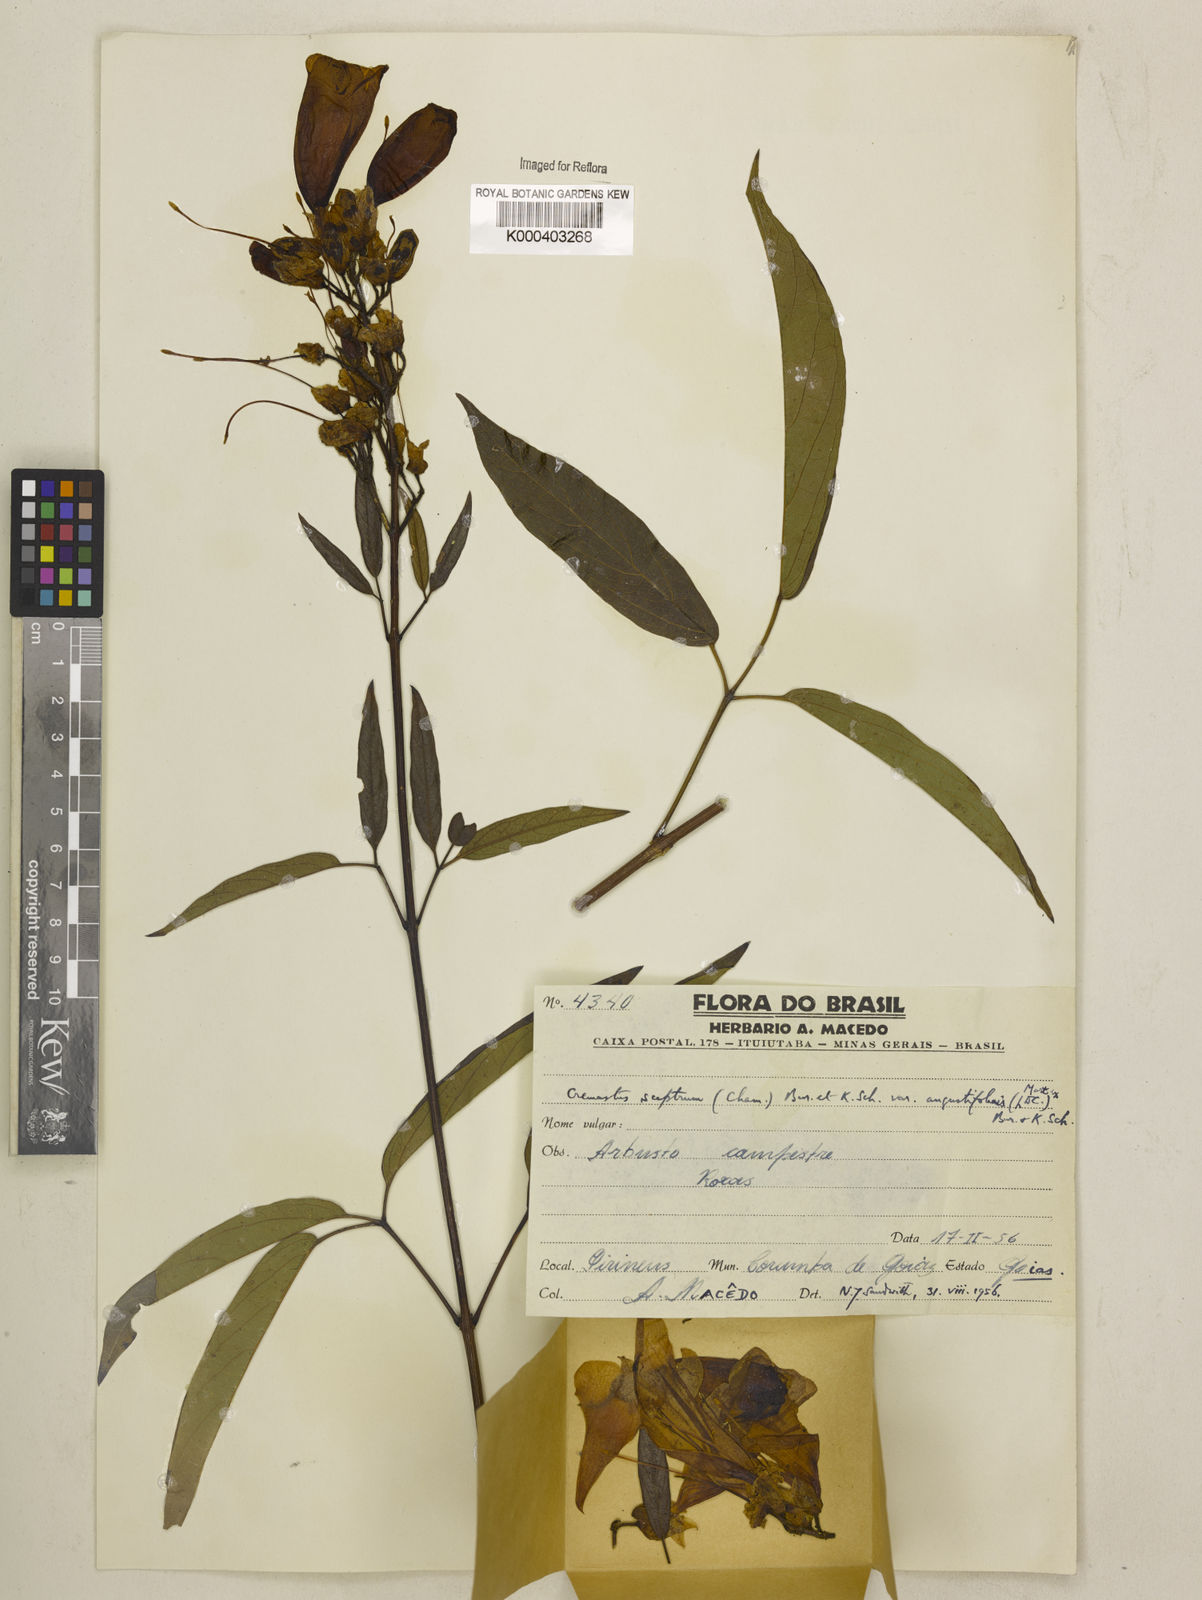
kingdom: Plantae
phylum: Tracheophyta
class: Magnoliopsida
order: Lamiales
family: Bignoniaceae
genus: Cuspidaria
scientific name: Cuspidaria sceptrum
